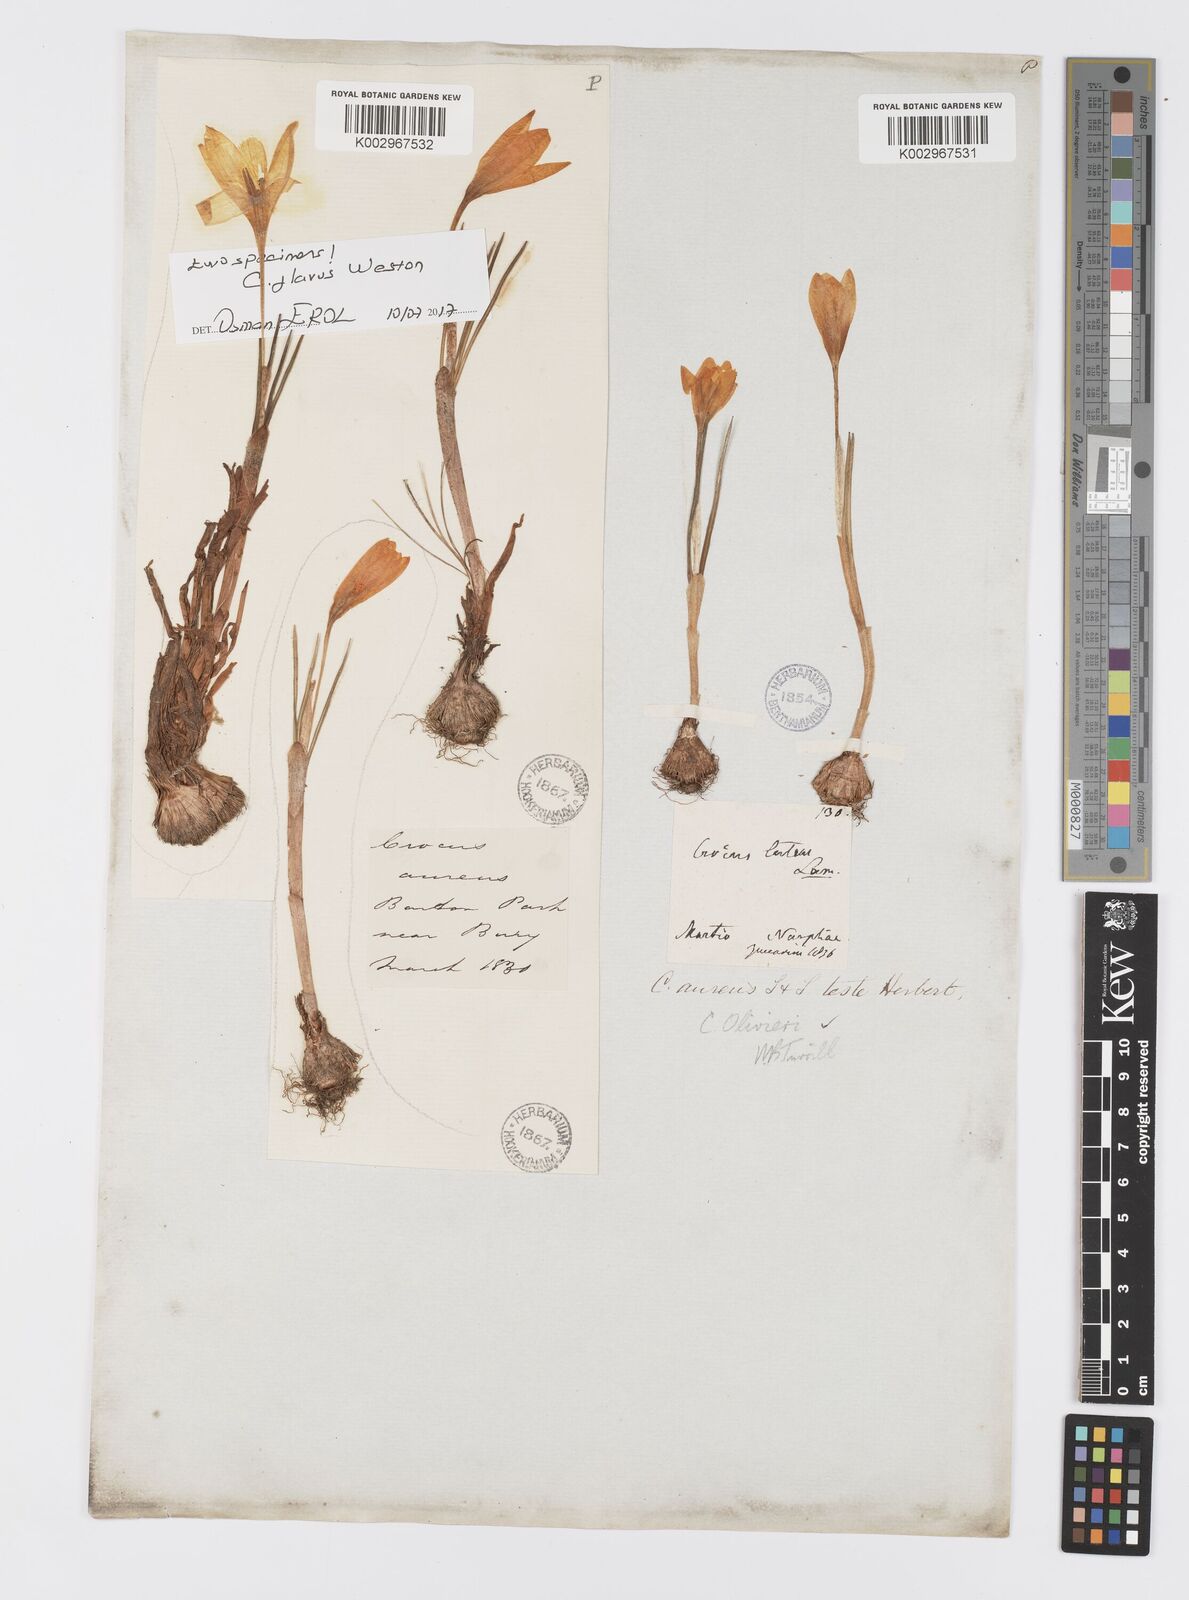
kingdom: Plantae
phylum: Tracheophyta
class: Liliopsida
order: Asparagales
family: Iridaceae
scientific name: Iridaceae
